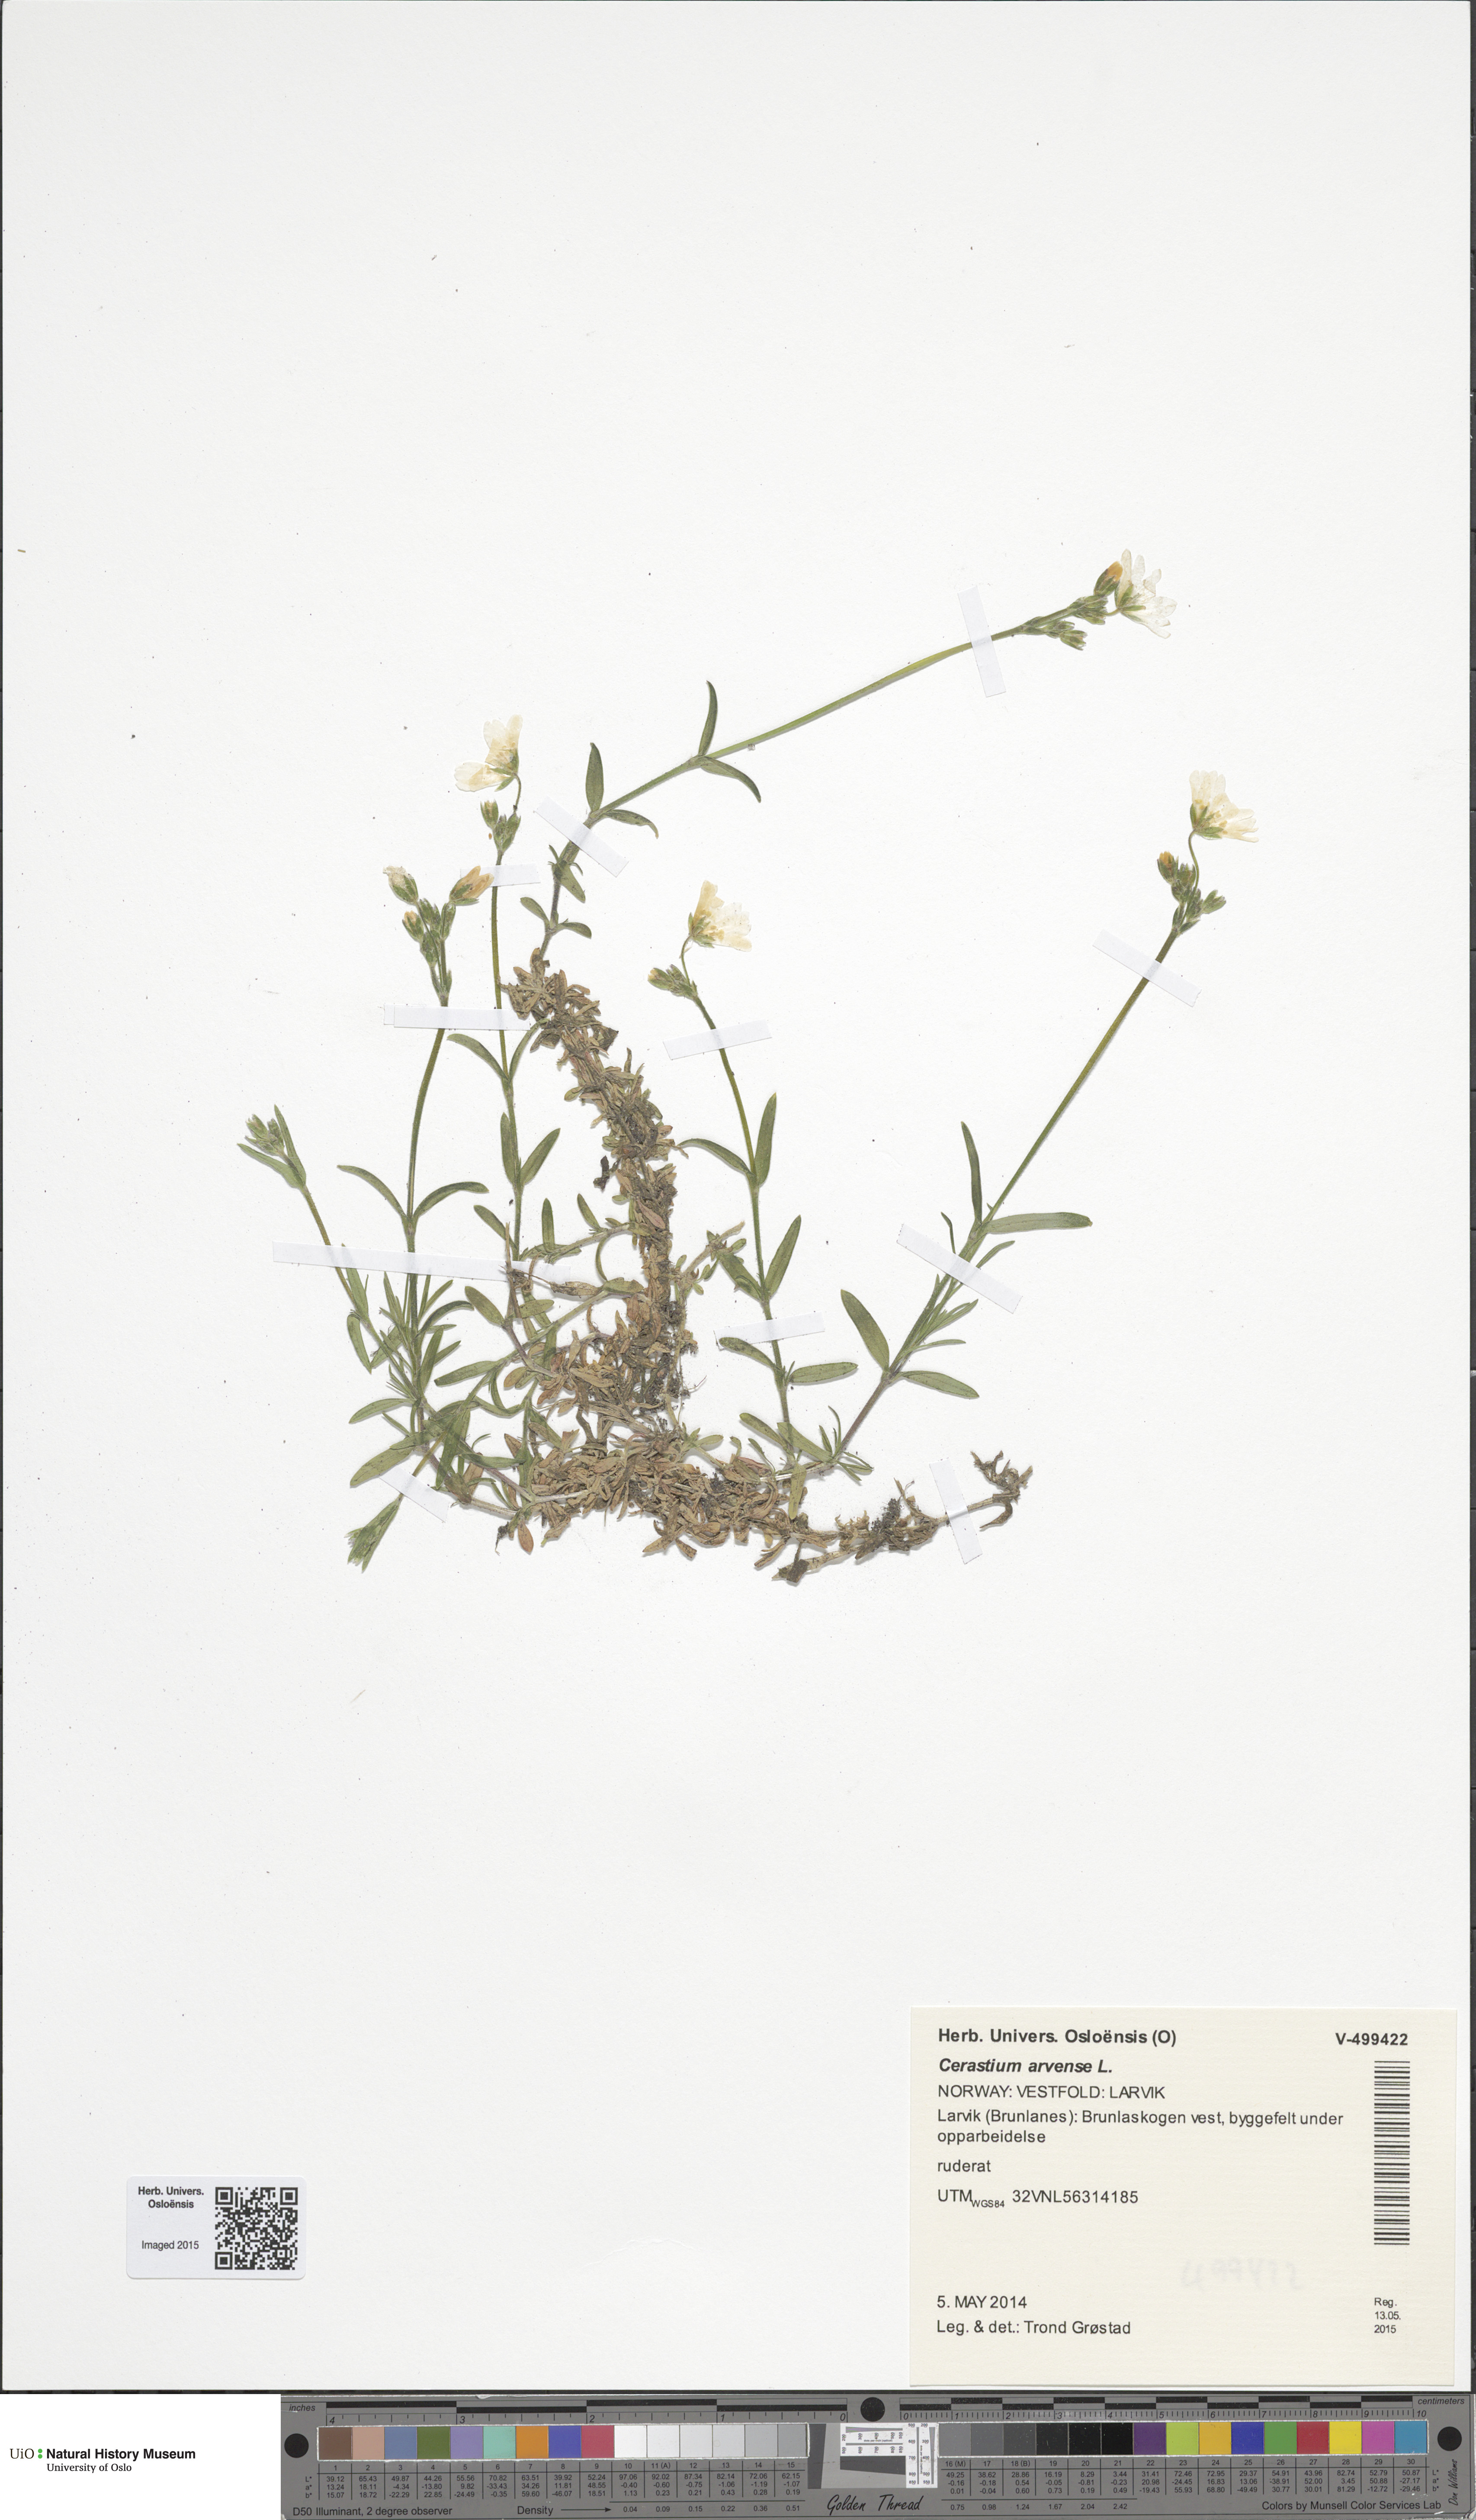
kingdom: Plantae
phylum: Tracheophyta
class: Magnoliopsida
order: Caryophyllales
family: Caryophyllaceae
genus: Cerastium
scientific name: Cerastium arvense
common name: Field mouse-ear
